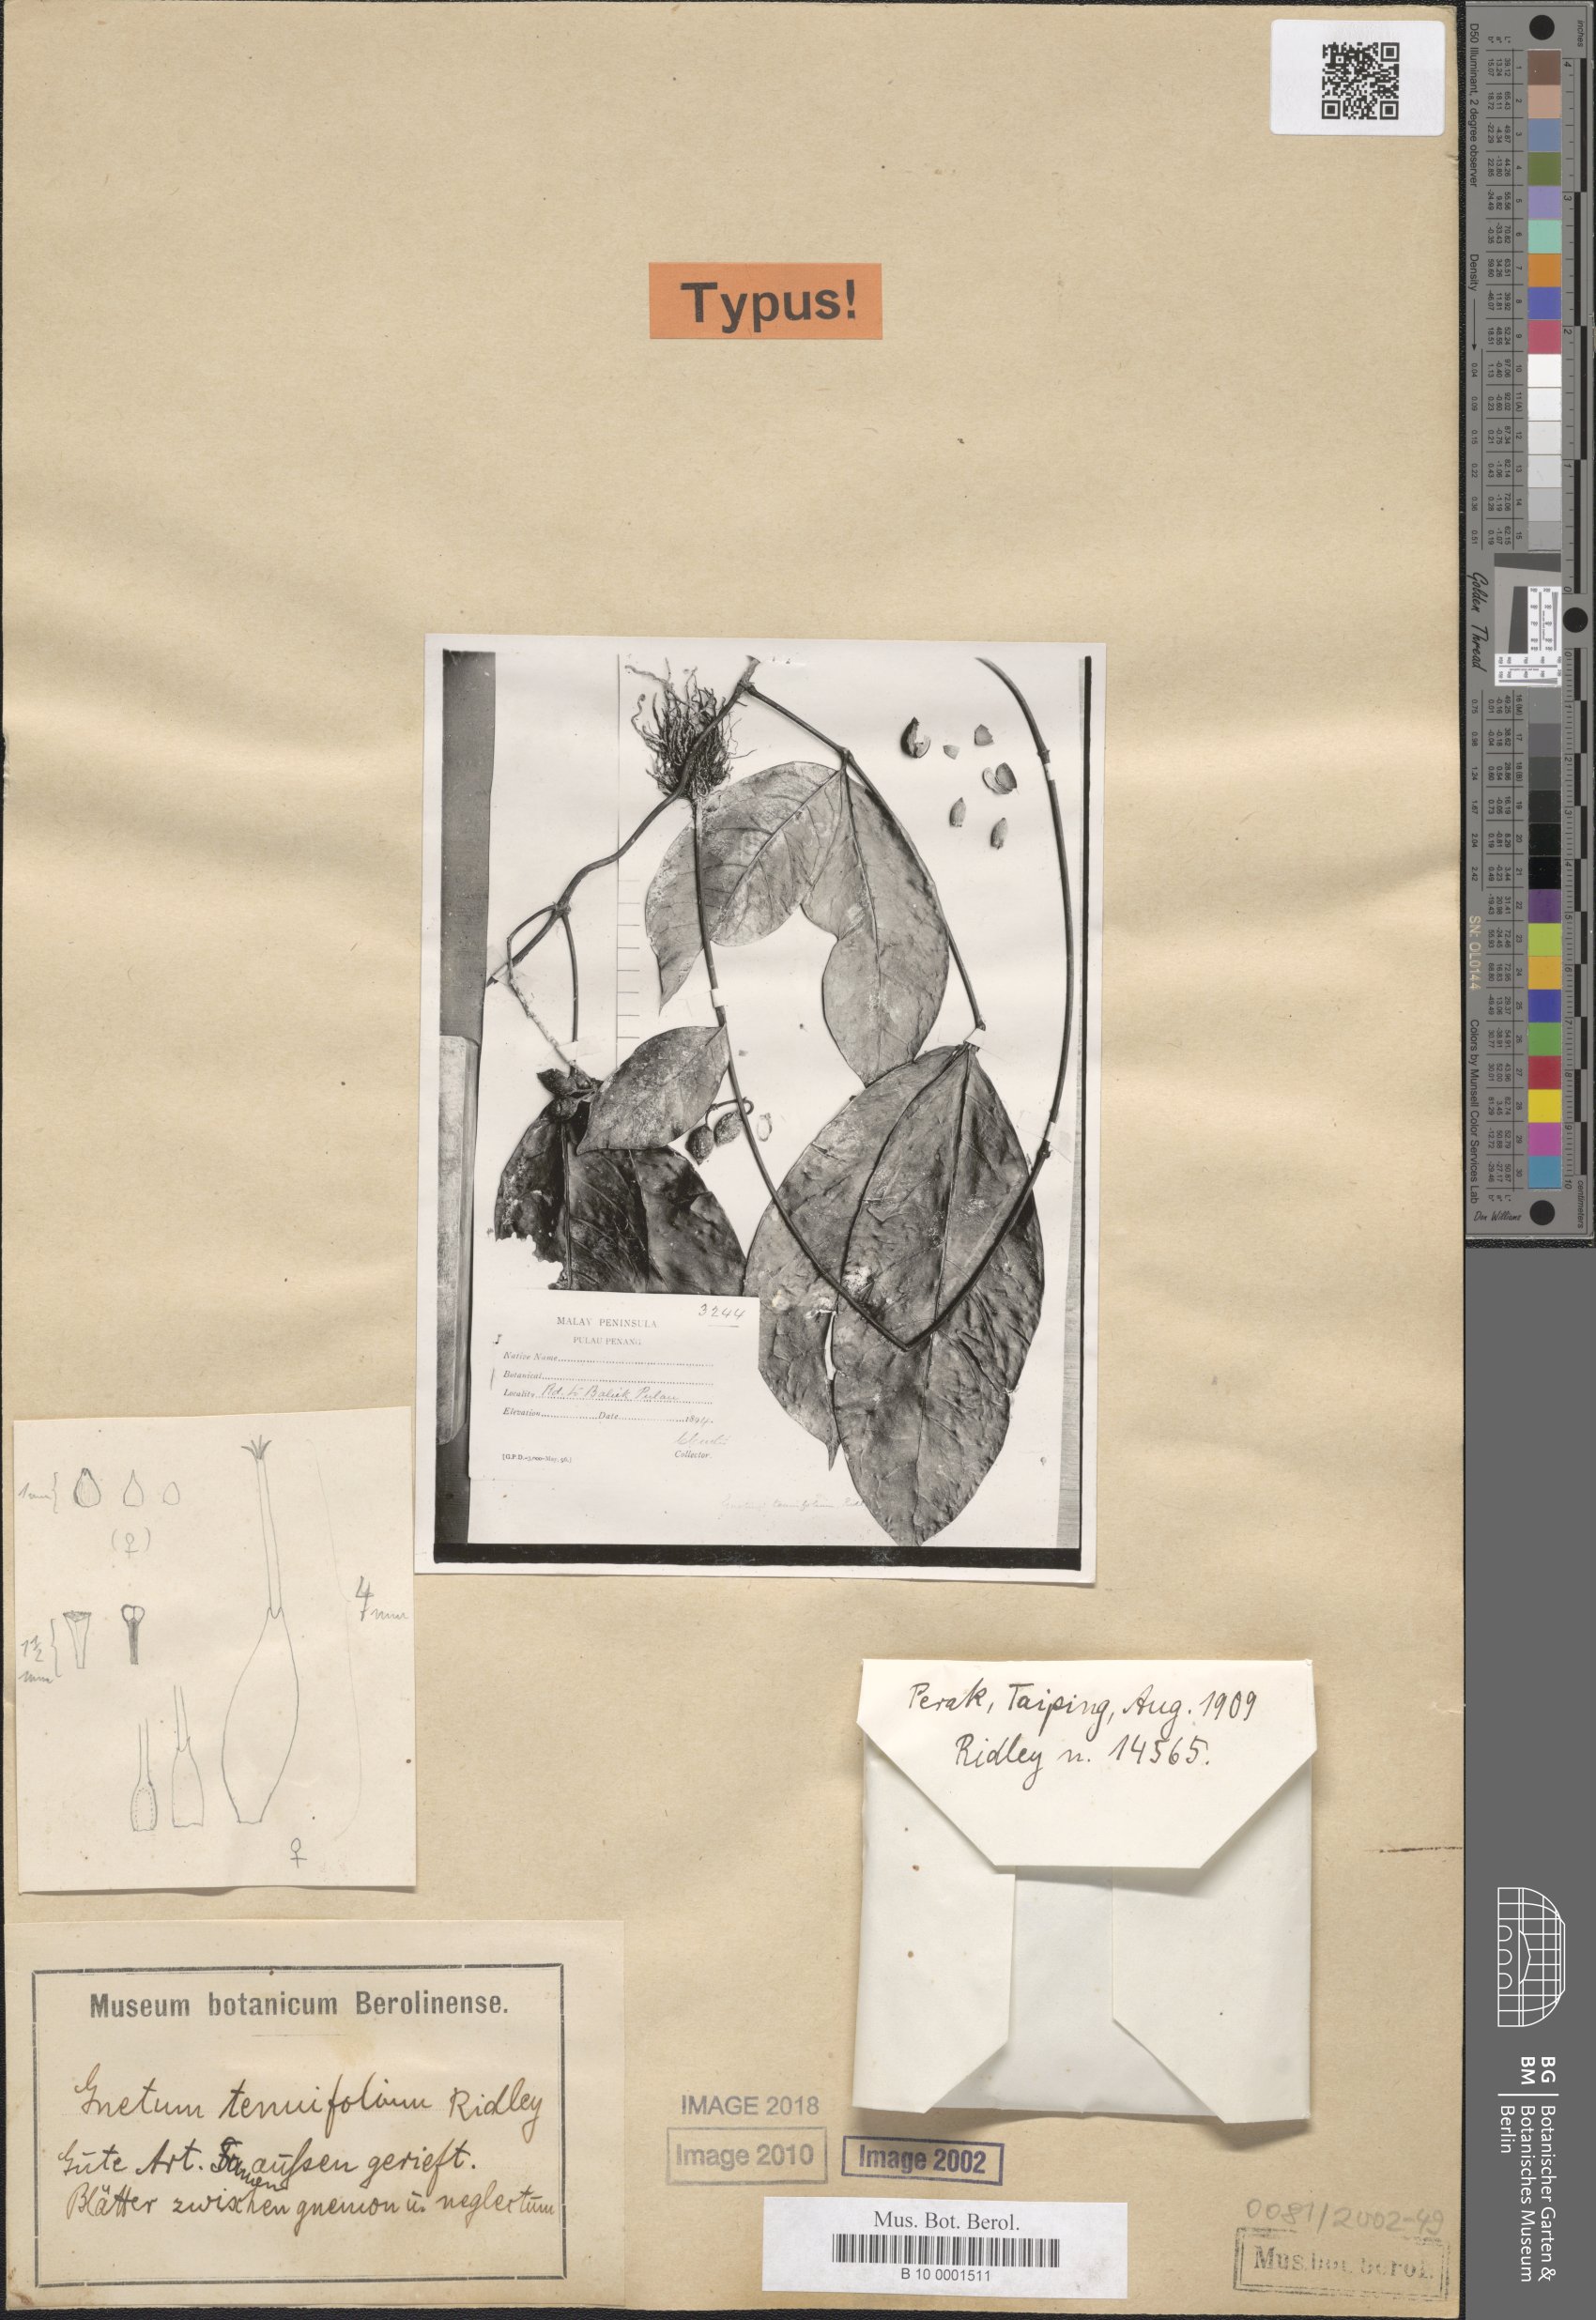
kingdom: Plantae
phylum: Tracheophyta
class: Gnetopsida
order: Gnetales
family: Gnetaceae
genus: Gnetum
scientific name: Gnetum tenuifolium
